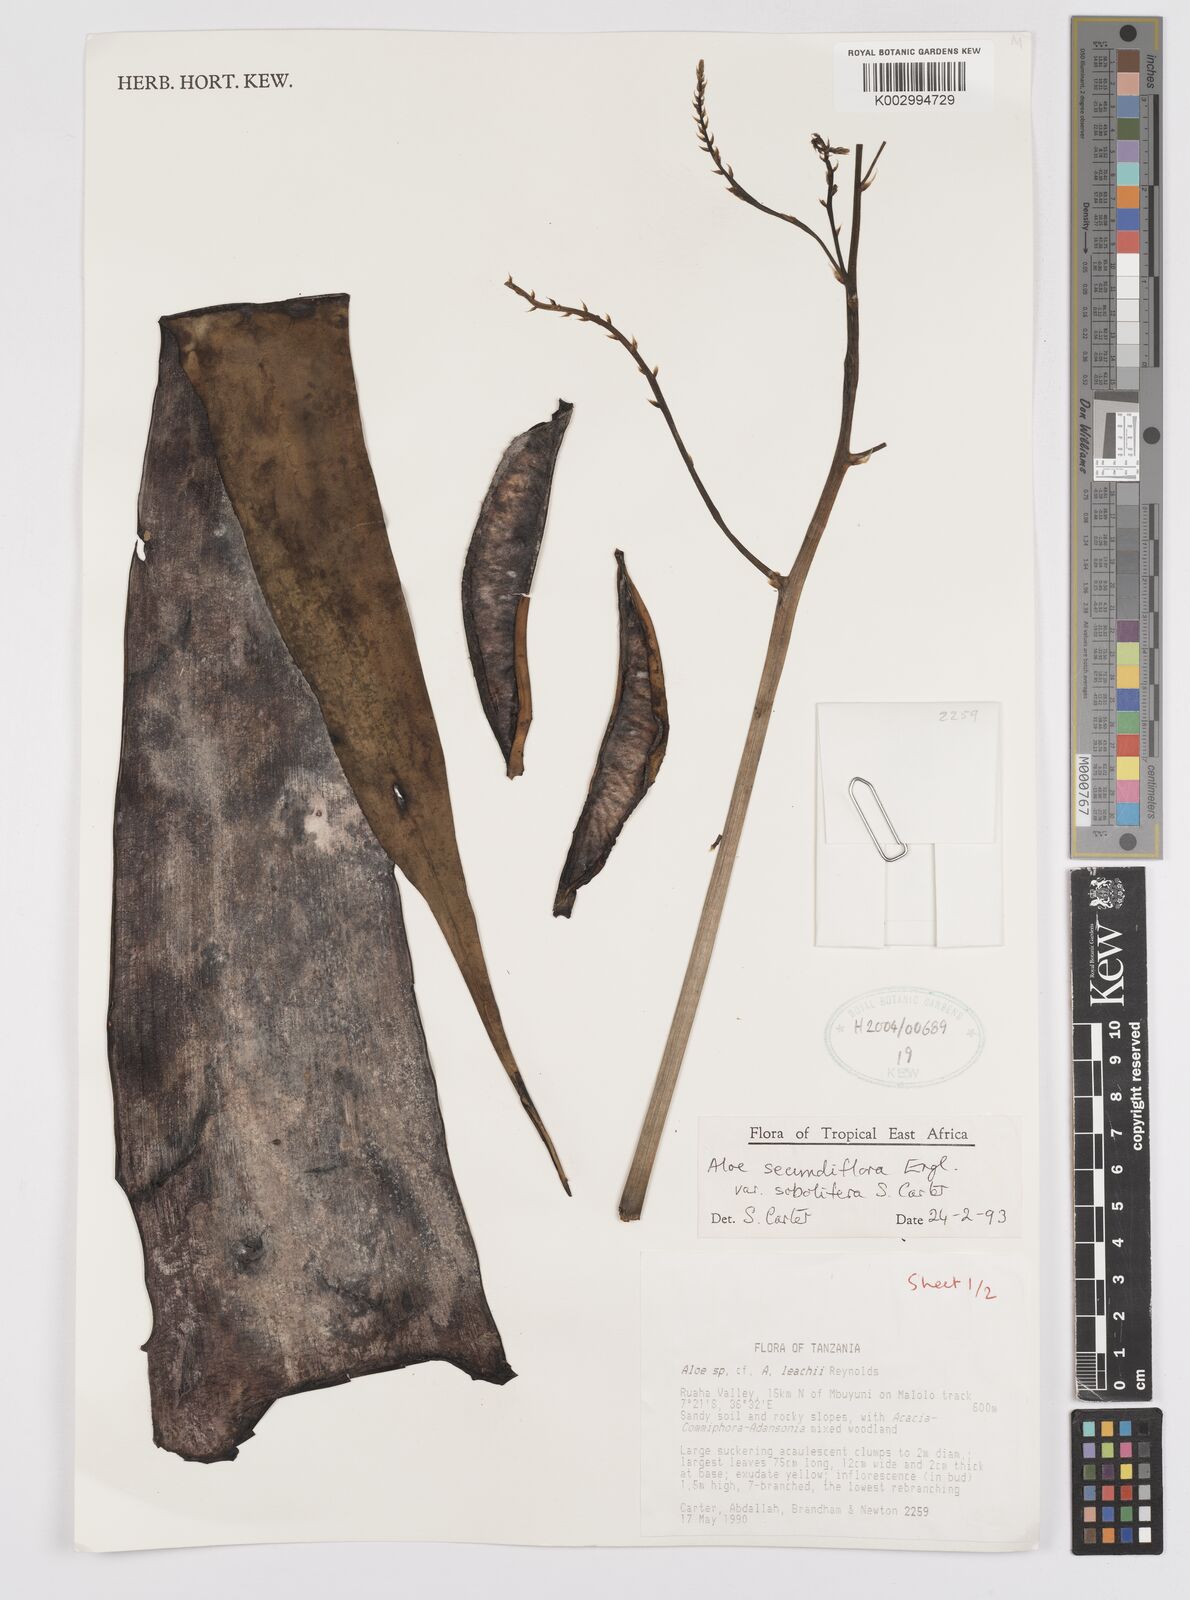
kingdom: Plantae
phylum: Tracheophyta
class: Liliopsida
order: Asparagales
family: Asphodelaceae
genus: Aloe
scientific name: Aloe sobolifera
